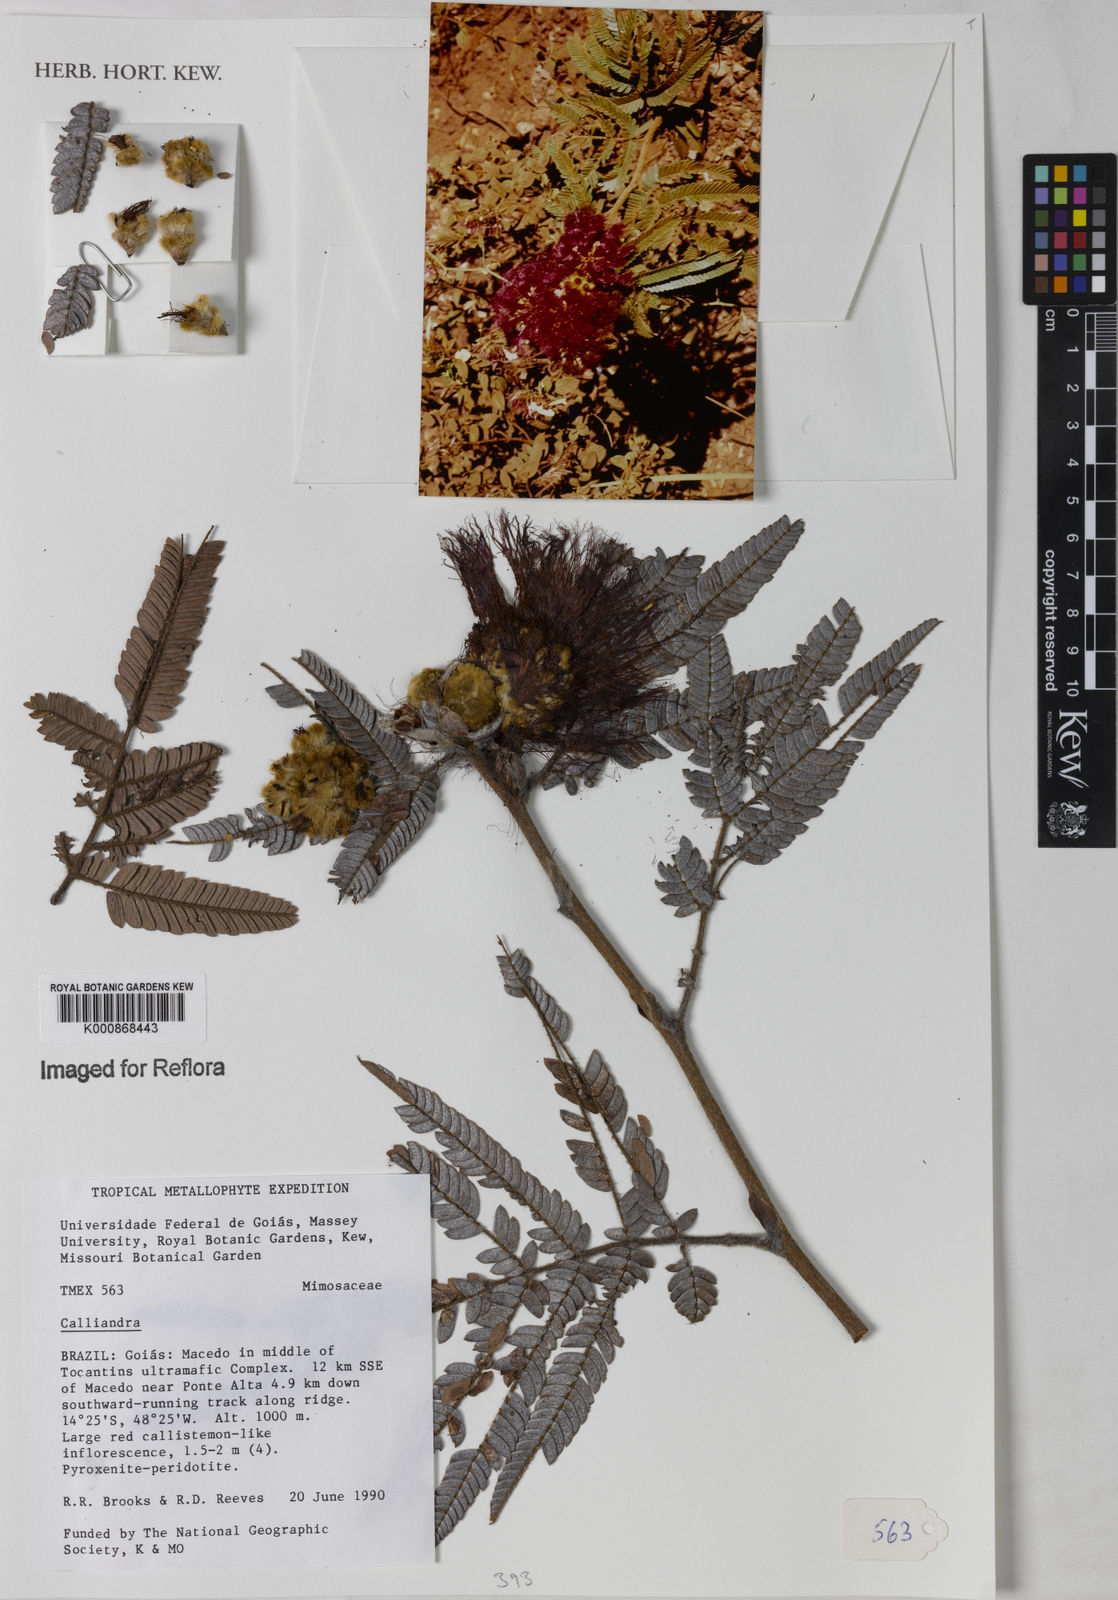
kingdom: Plantae
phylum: Tracheophyta
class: Magnoliopsida
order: Fabales
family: Fabaceae
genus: Calliandra
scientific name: Calliandra dysantha
